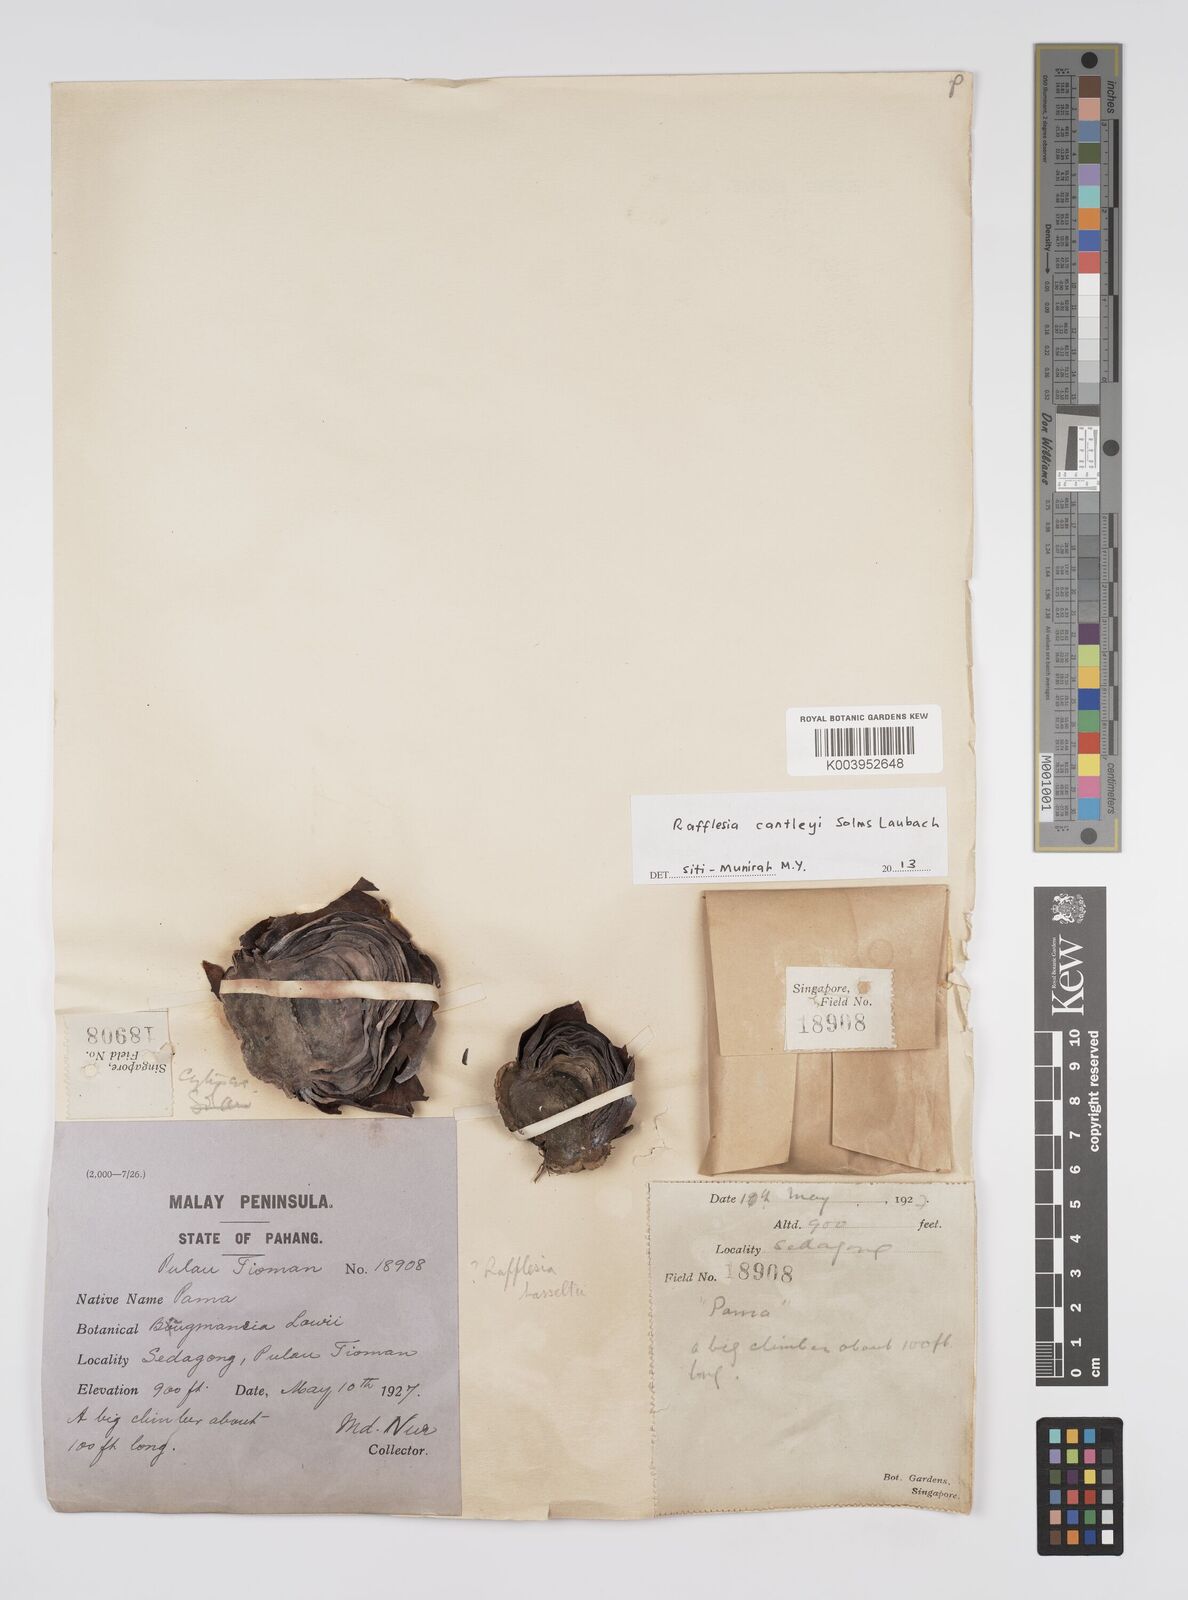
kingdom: Plantae
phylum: Tracheophyta
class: Magnoliopsida
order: Malpighiales
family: Rafflesiaceae
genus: Rafflesia
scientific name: Rafflesia cantleyi
